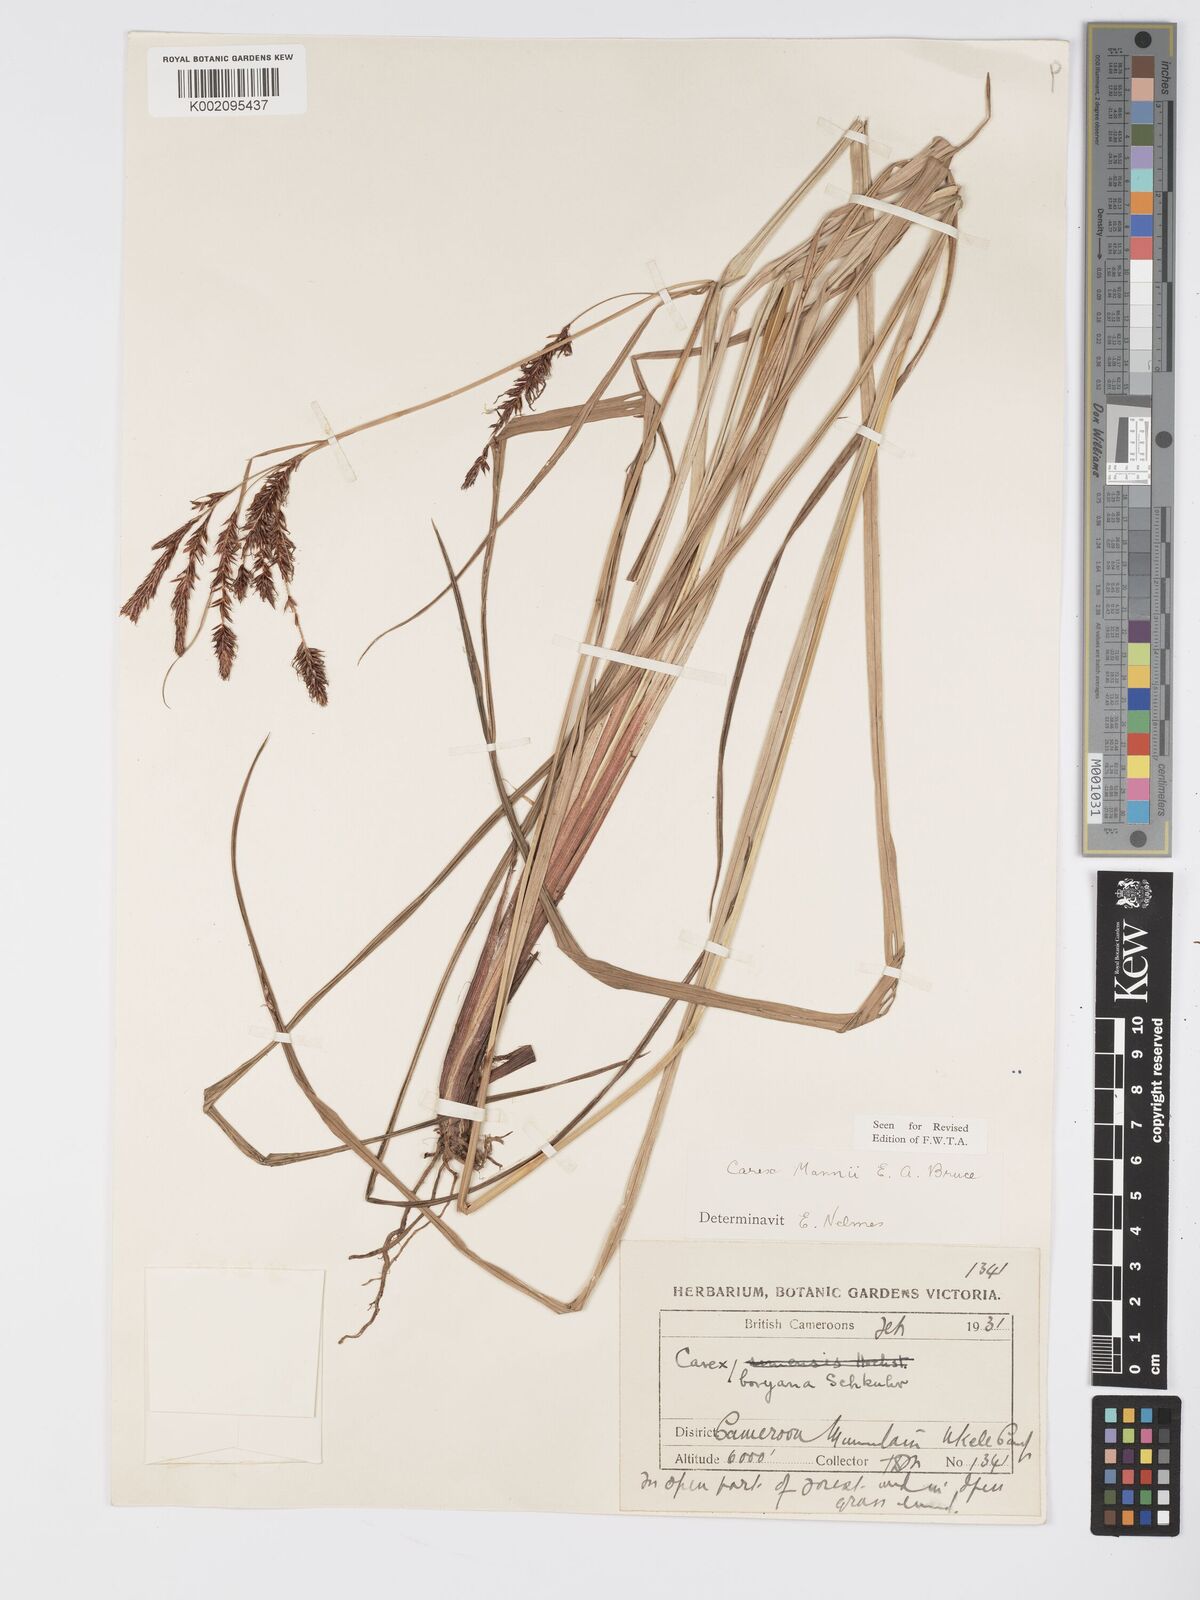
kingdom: Plantae
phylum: Tracheophyta
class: Liliopsida
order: Poales
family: Cyperaceae
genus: Carex
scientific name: Carex mannii
